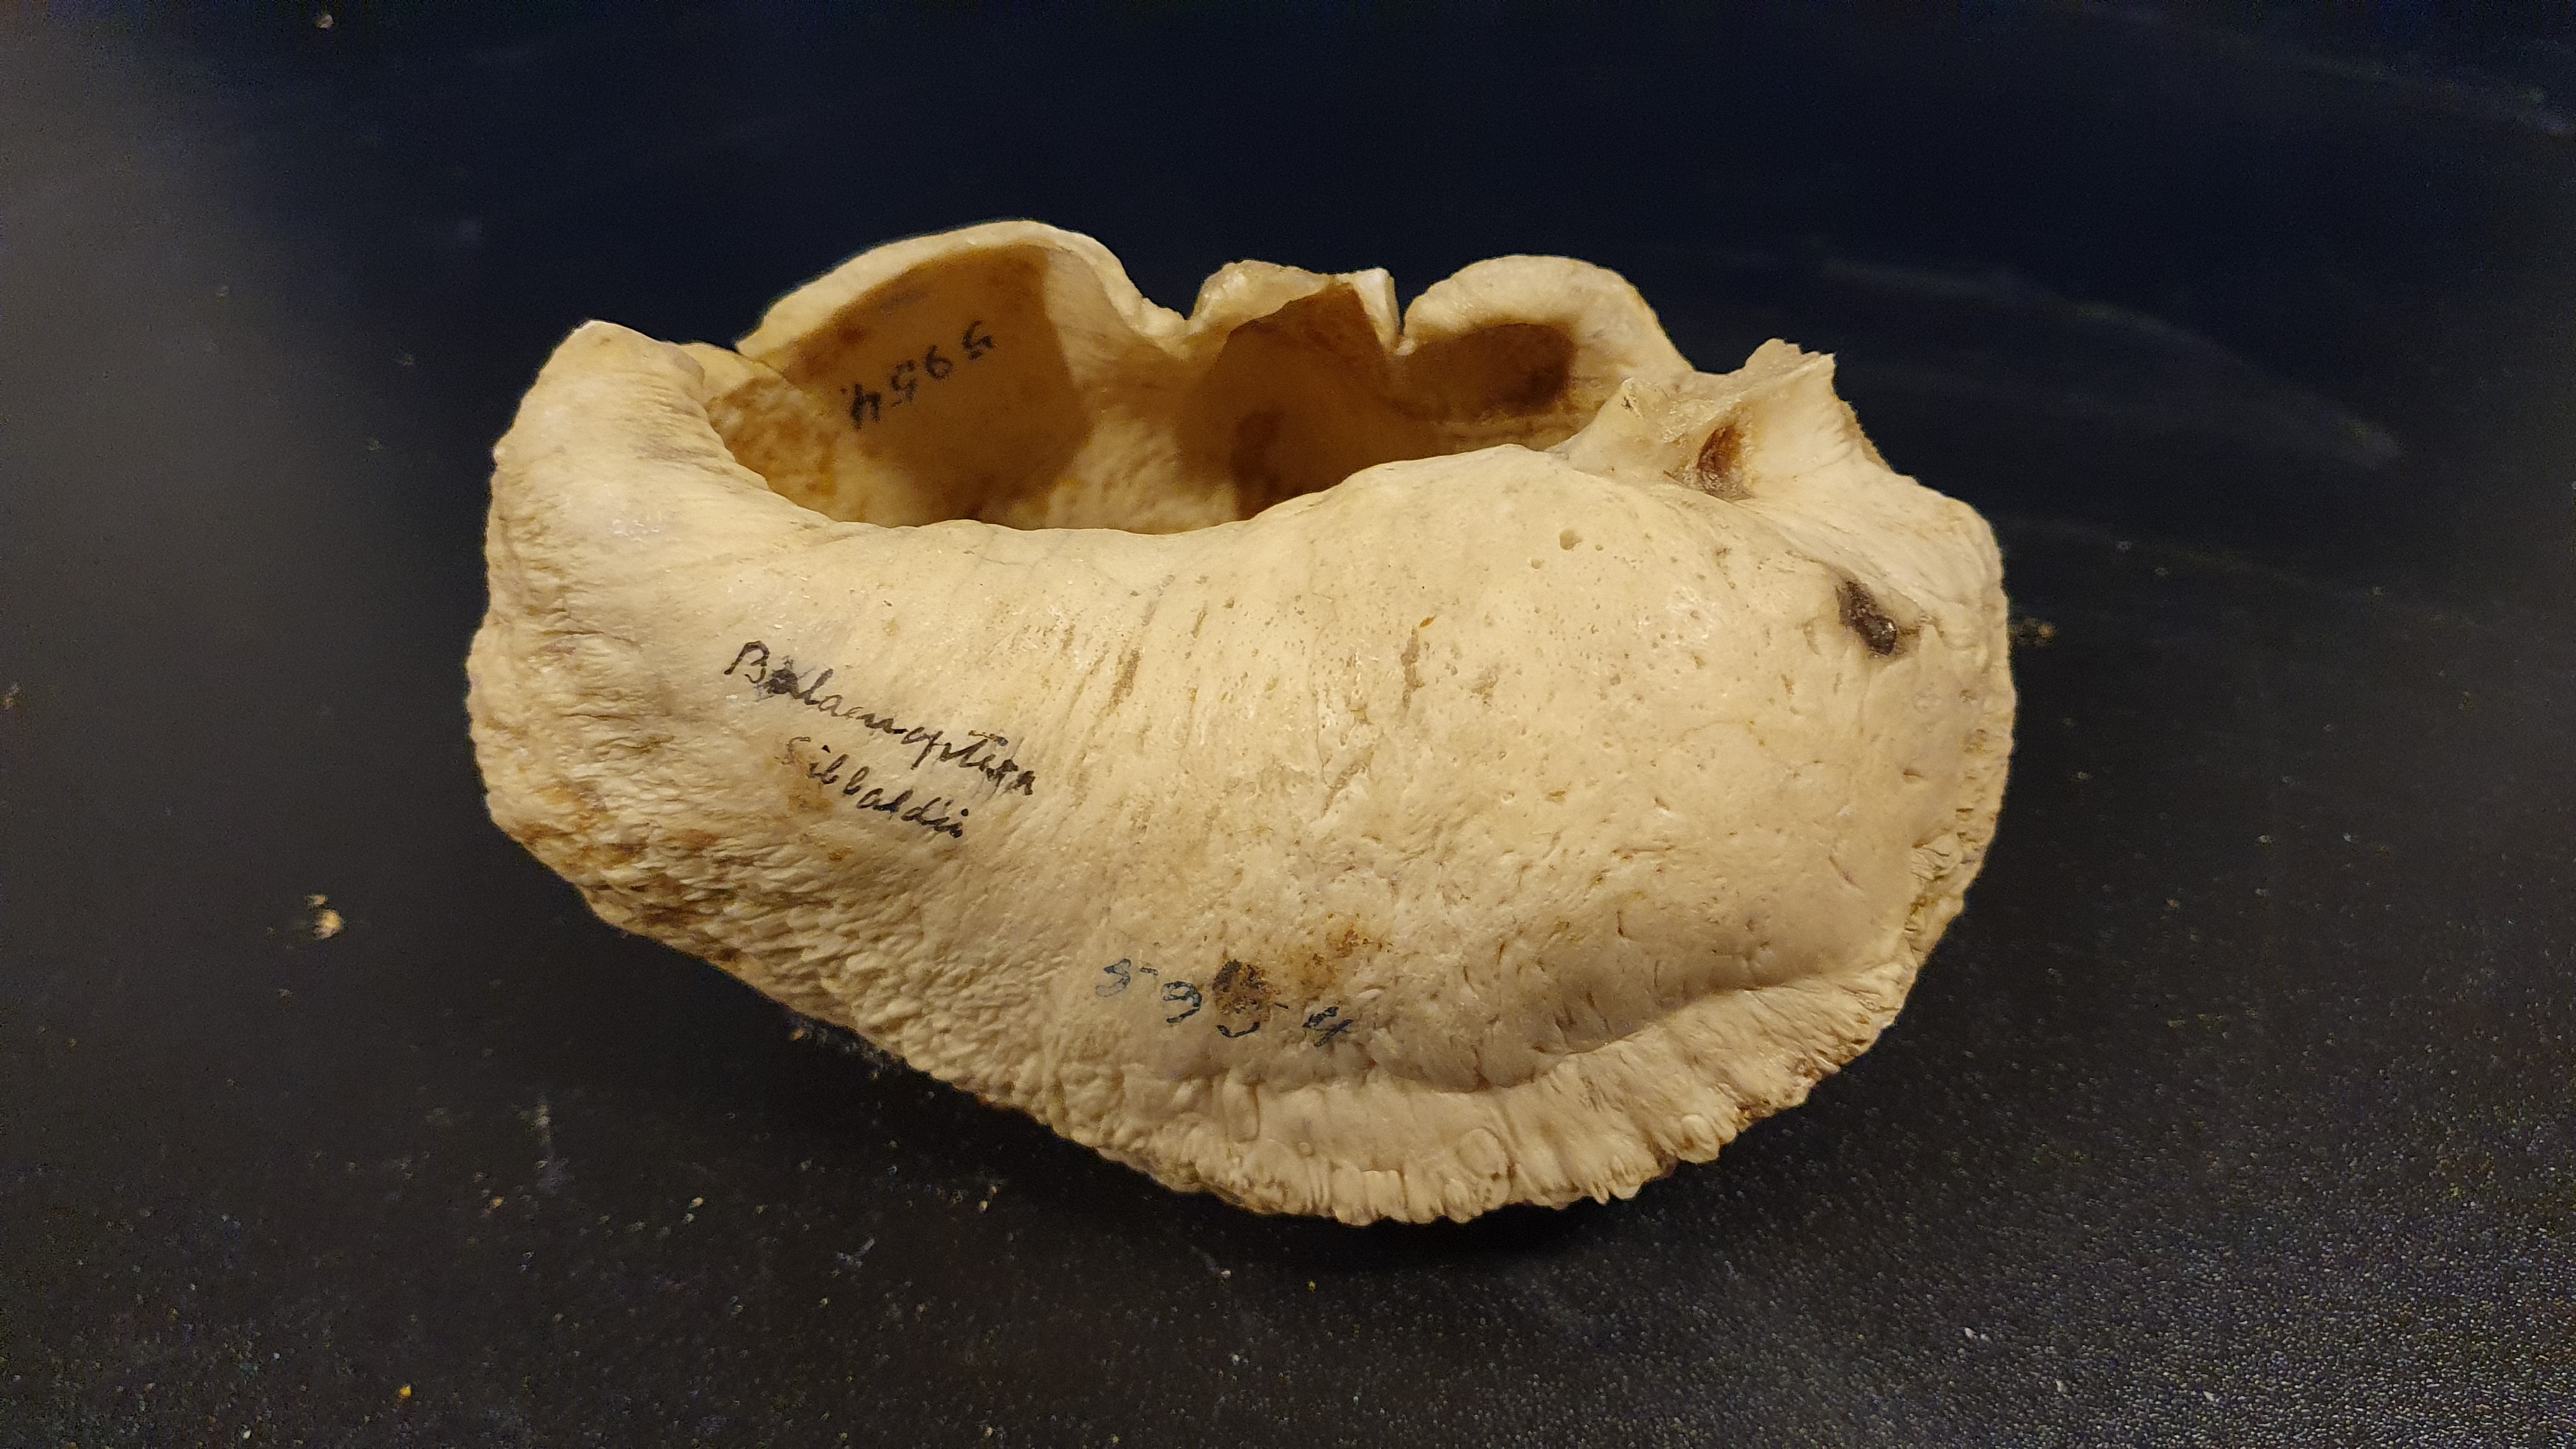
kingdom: Animalia
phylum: Chordata
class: Mammalia
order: Cetacea
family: Balaenopteridae
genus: Balaenoptera
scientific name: Balaenoptera musculus
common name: Blue whale
